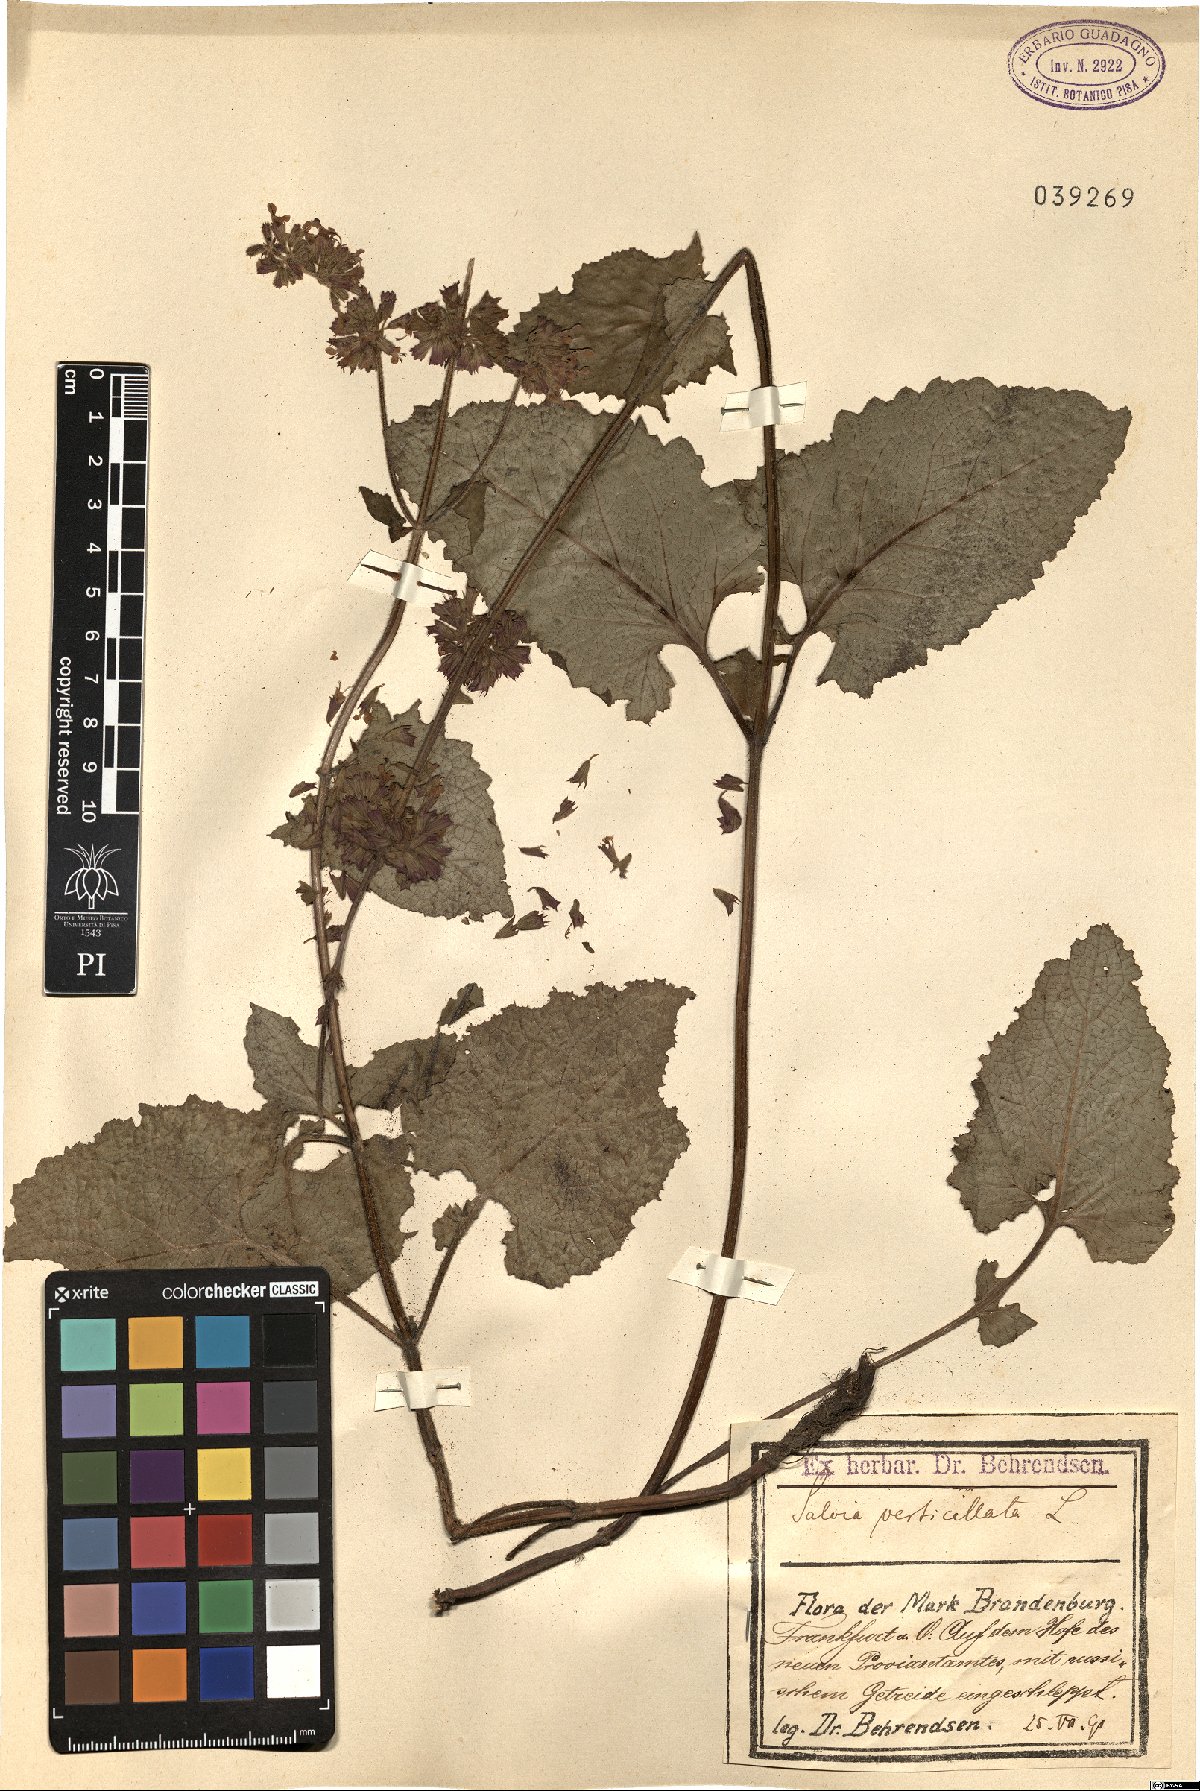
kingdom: Plantae
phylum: Tracheophyta
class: Magnoliopsida
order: Lamiales
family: Lamiaceae
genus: Salvia
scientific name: Salvia verticillata
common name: Whorled clary
